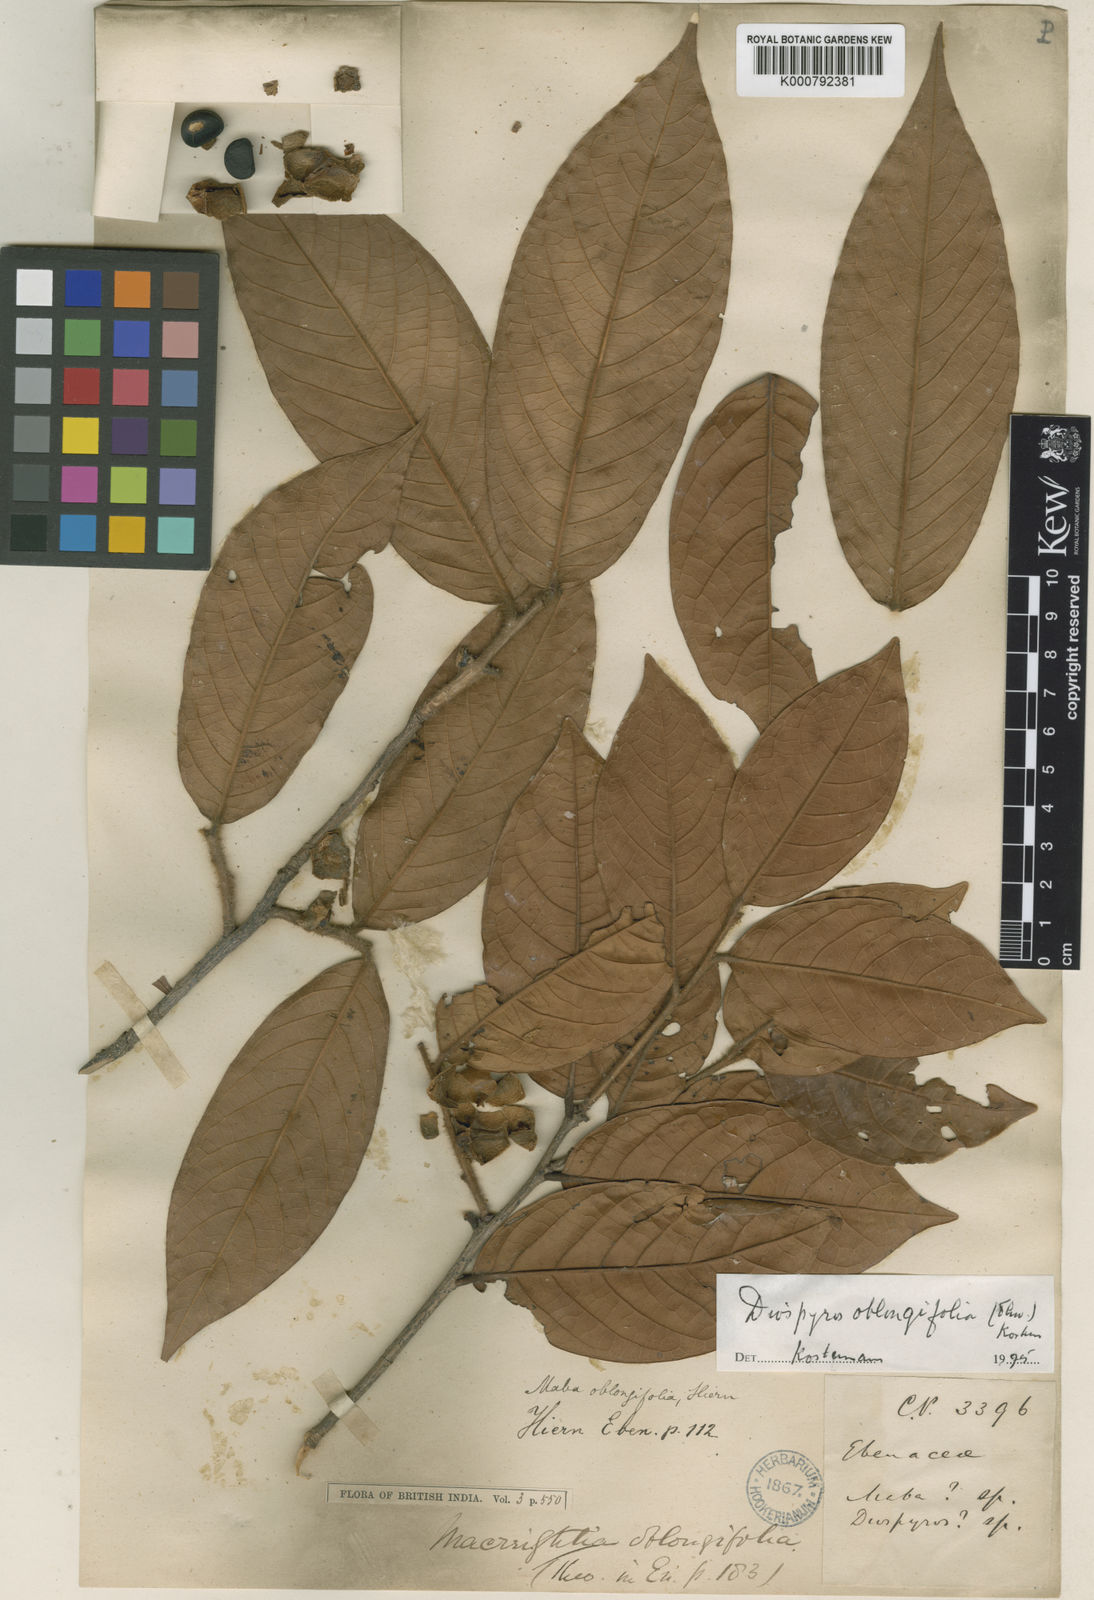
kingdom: Plantae
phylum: Tracheophyta
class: Magnoliopsida
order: Ericales
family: Ebenaceae
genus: Diospyros
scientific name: Diospyros
